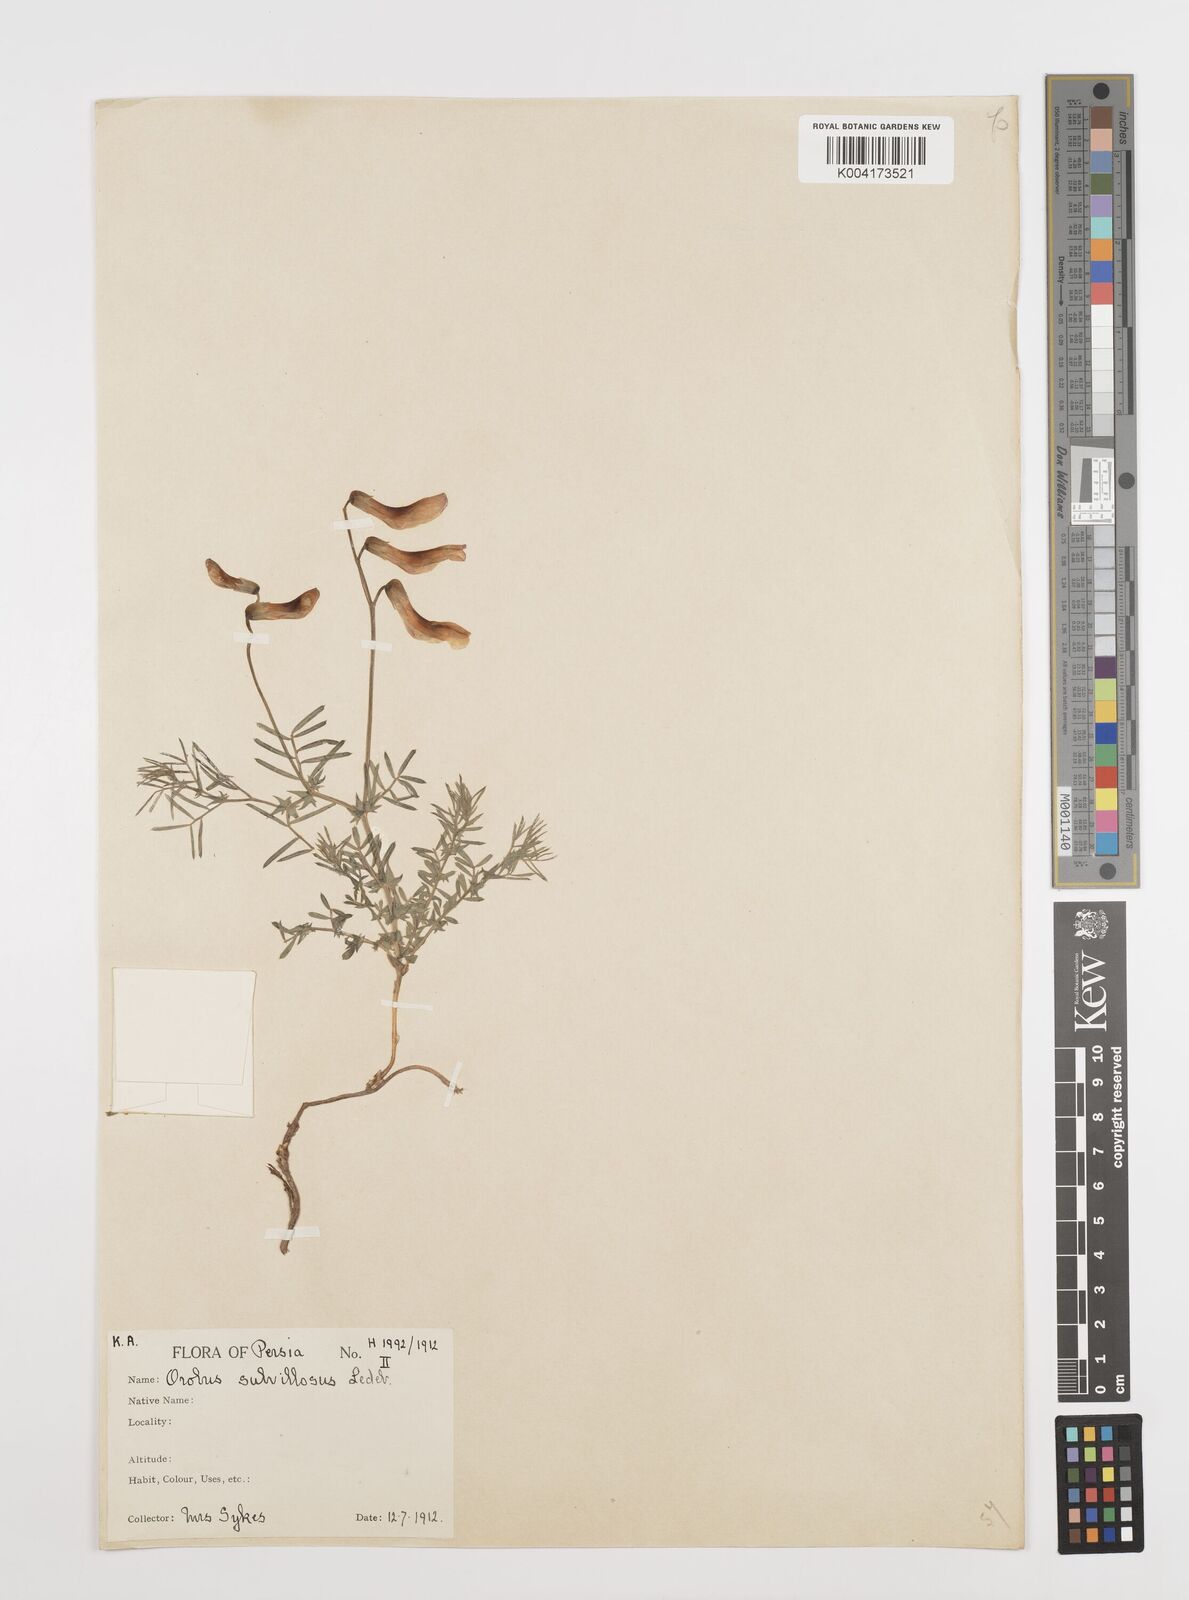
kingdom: Plantae
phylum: Tracheophyta
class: Magnoliopsida
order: Fabales
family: Fabaceae
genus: Vicia
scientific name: Vicia subvillosa
